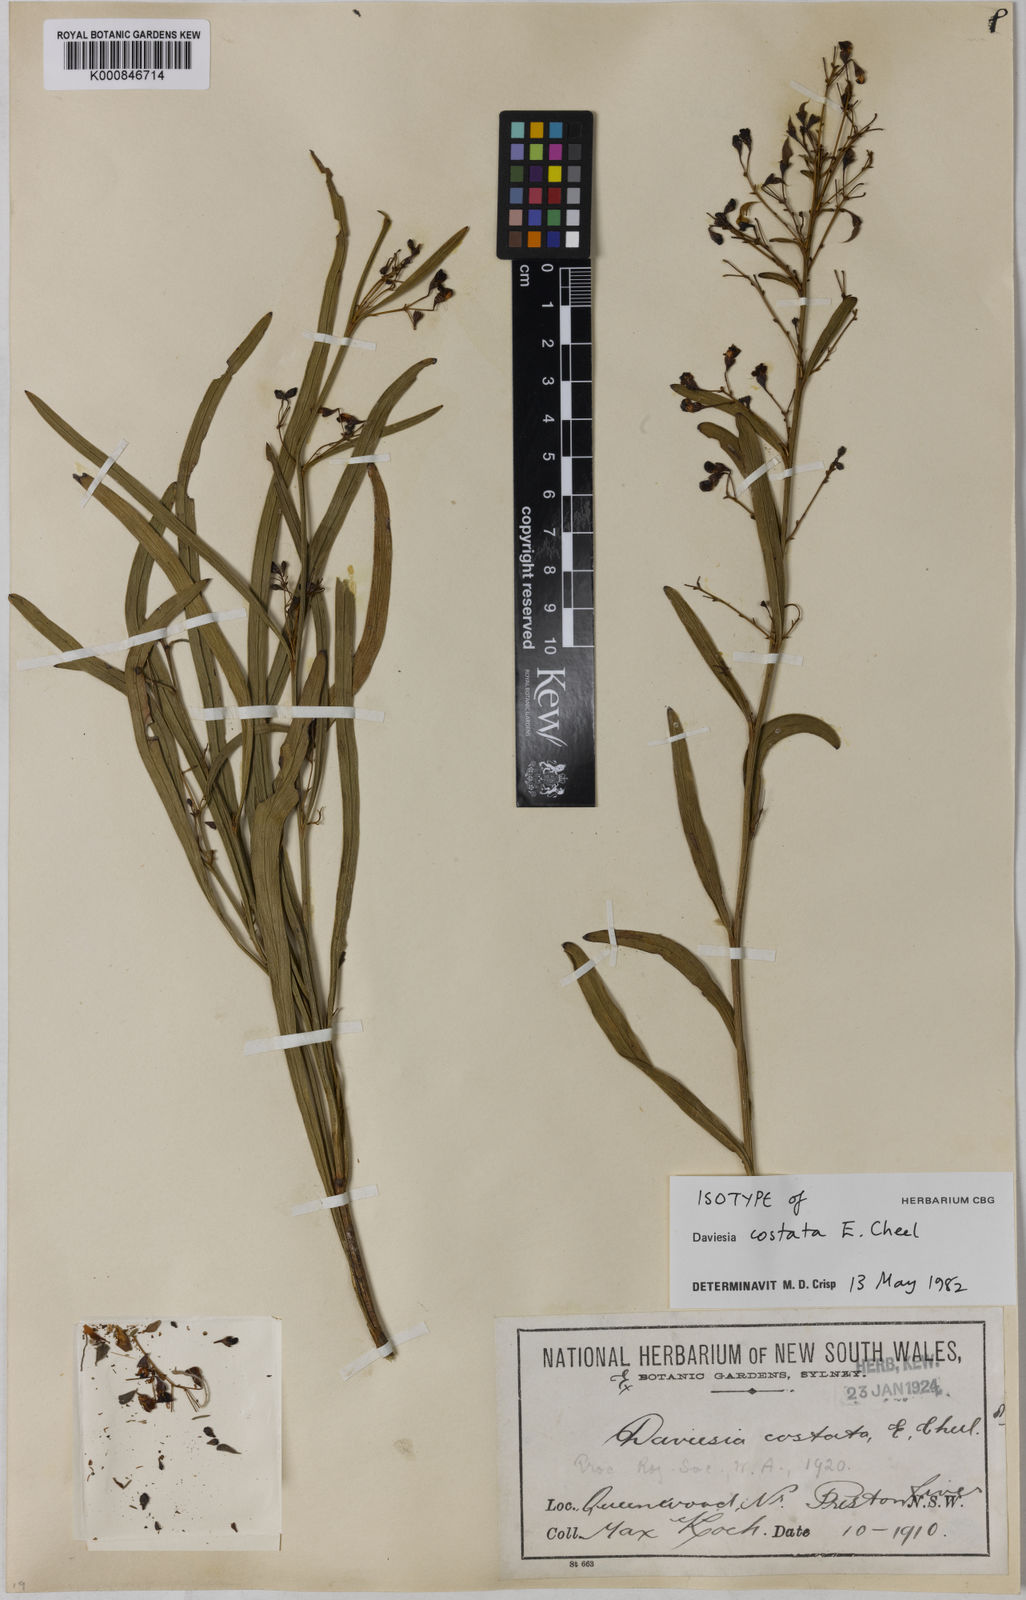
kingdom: Plantae
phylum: Tracheophyta
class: Magnoliopsida
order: Fabales
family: Fabaceae
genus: Daviesia
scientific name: Daviesia costata
